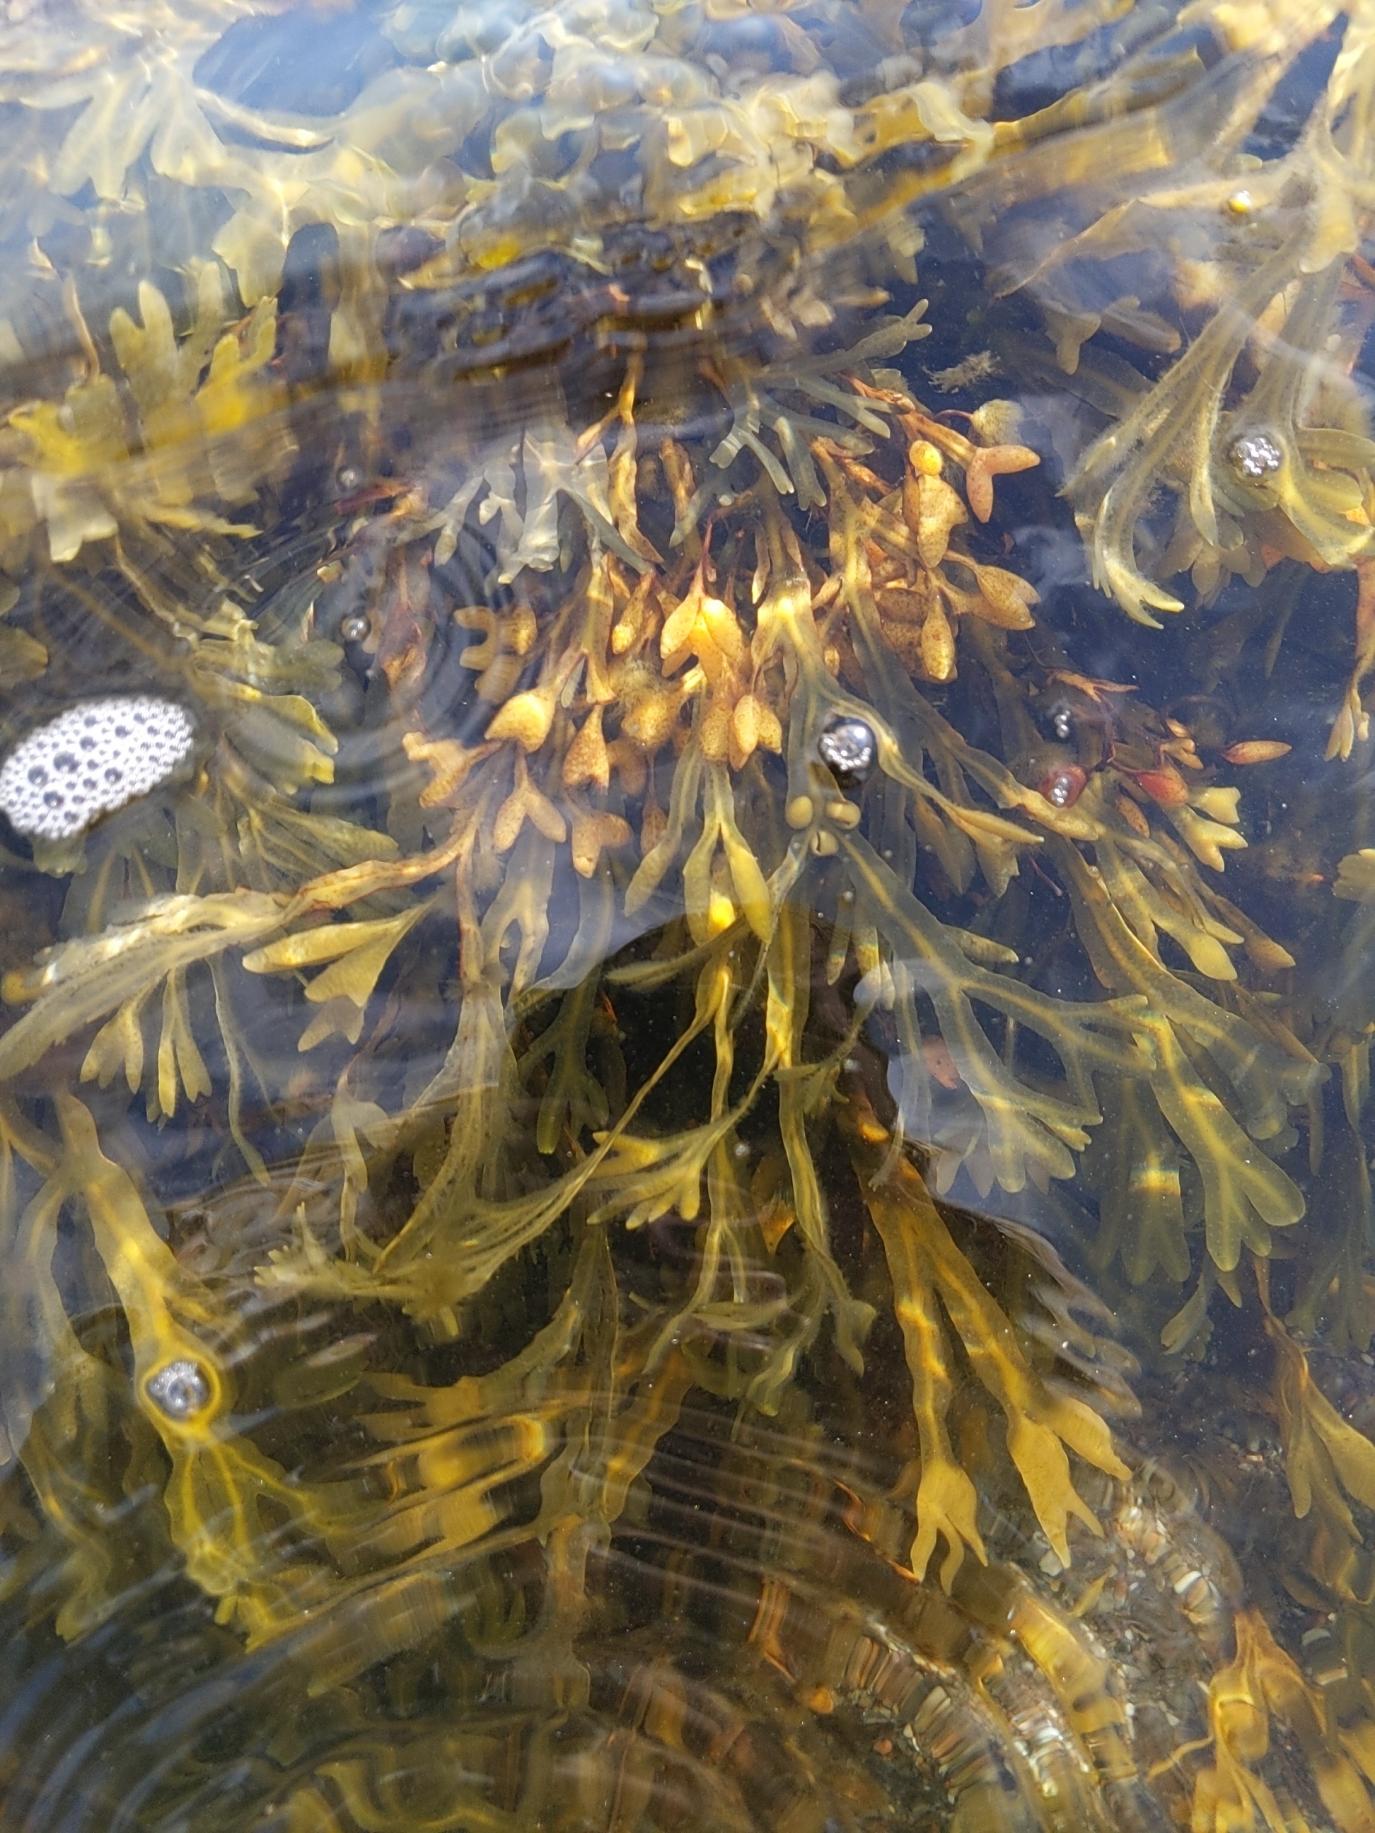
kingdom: Chromista
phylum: Ochrophyta
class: Phaeophyceae
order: Fucales
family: Fucaceae
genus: Fucus
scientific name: Fucus vesiculosus
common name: Blæretang
